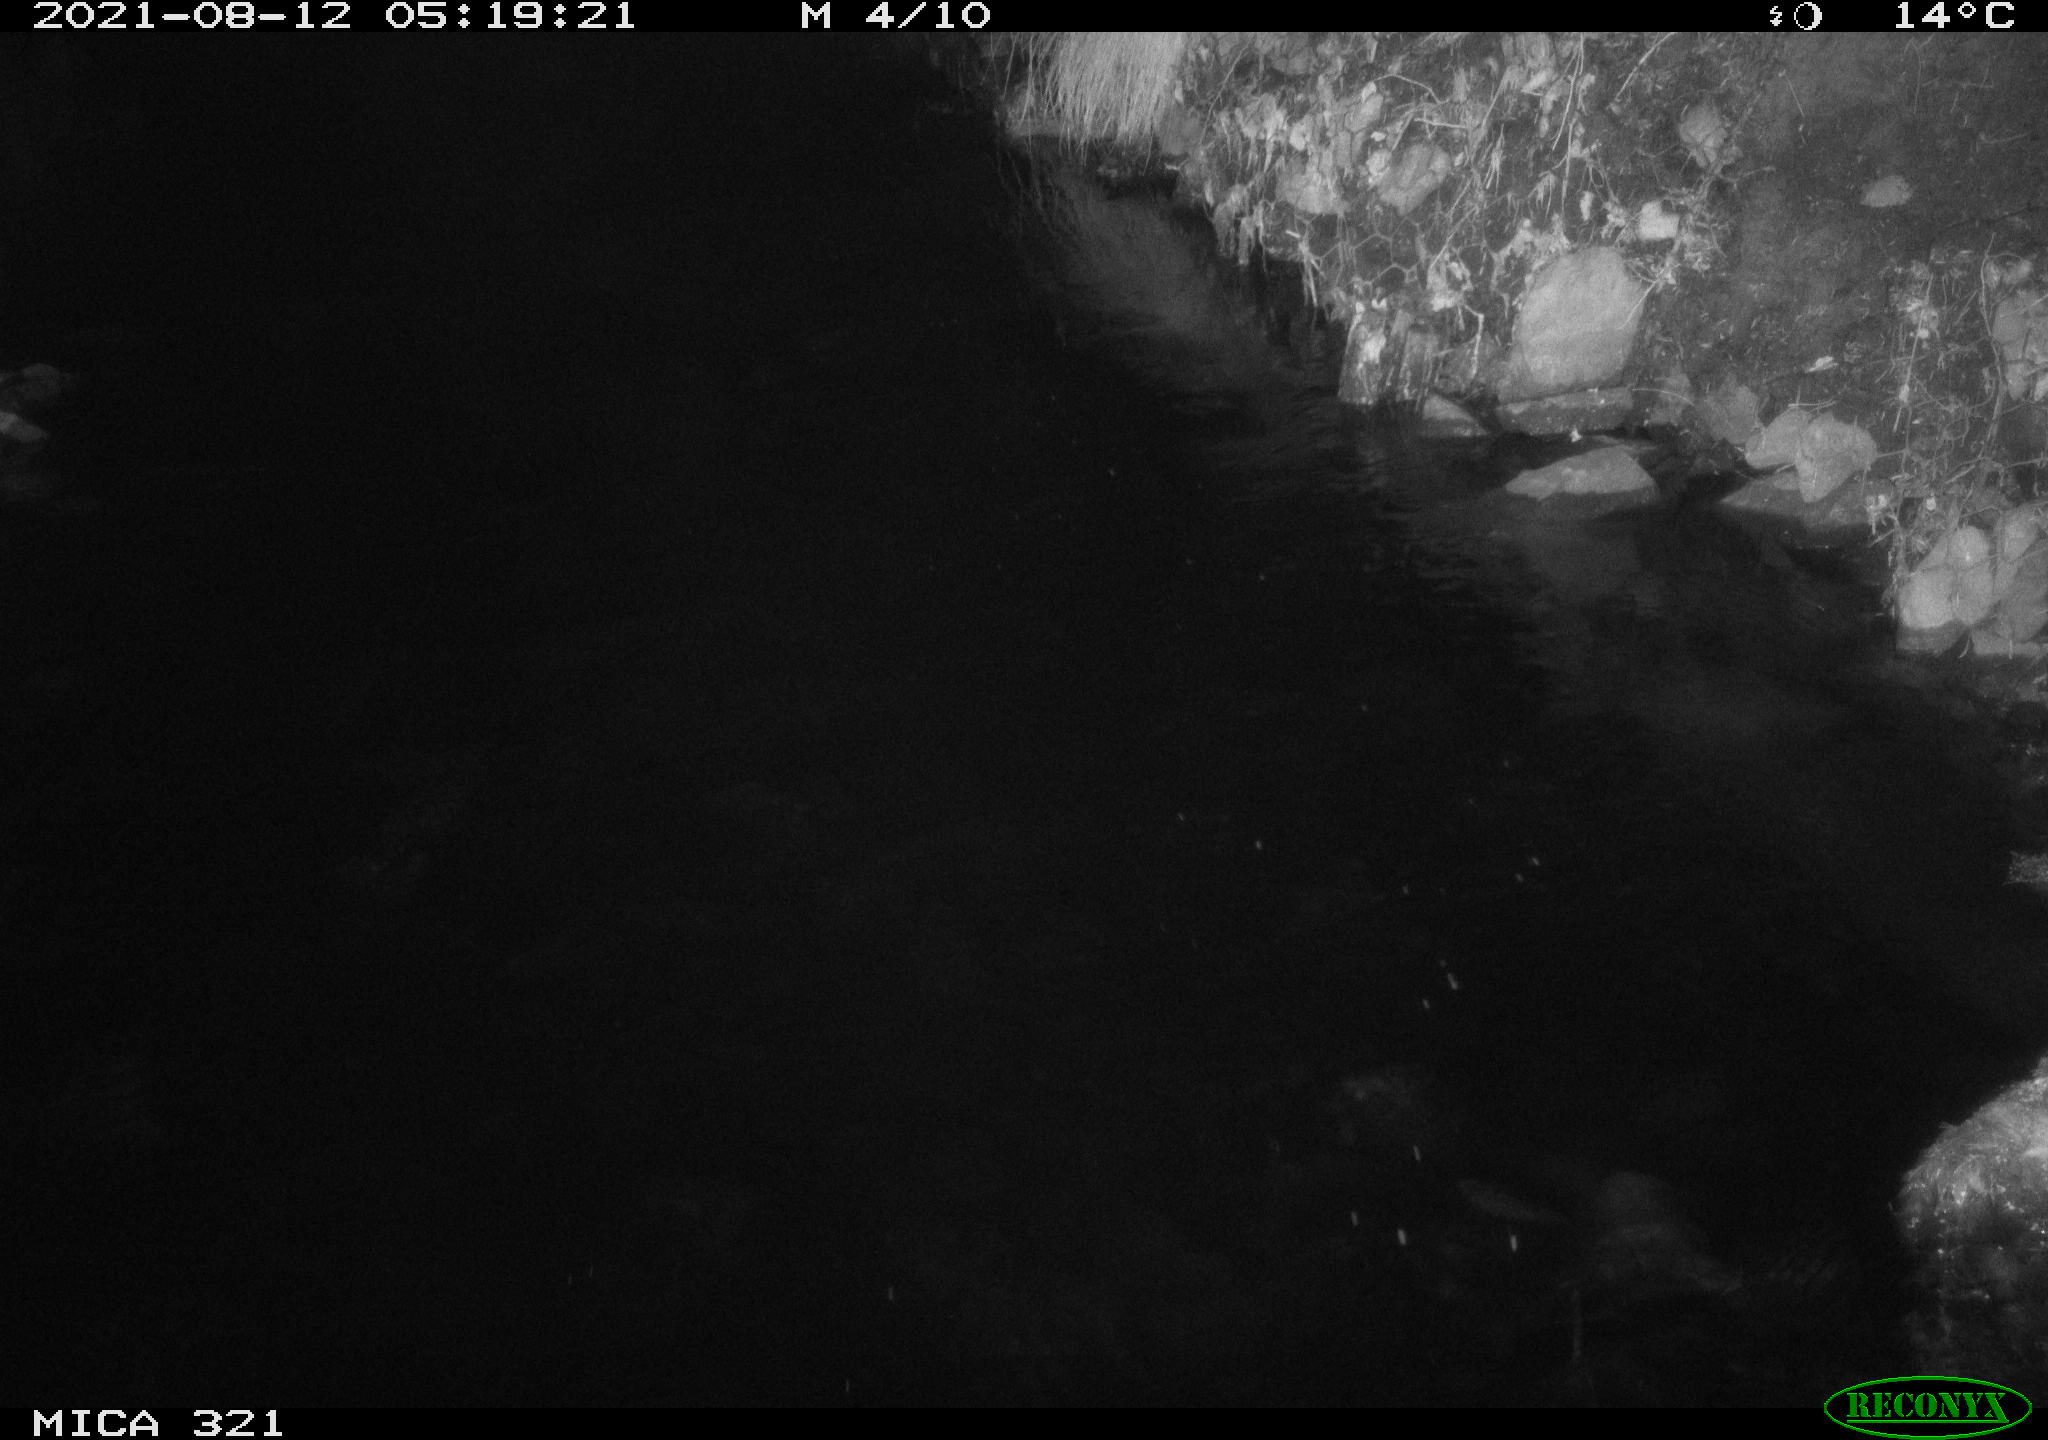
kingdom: Animalia
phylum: Chordata
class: Aves
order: Anseriformes
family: Anatidae
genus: Anas
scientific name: Anas platyrhynchos
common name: Mallard
